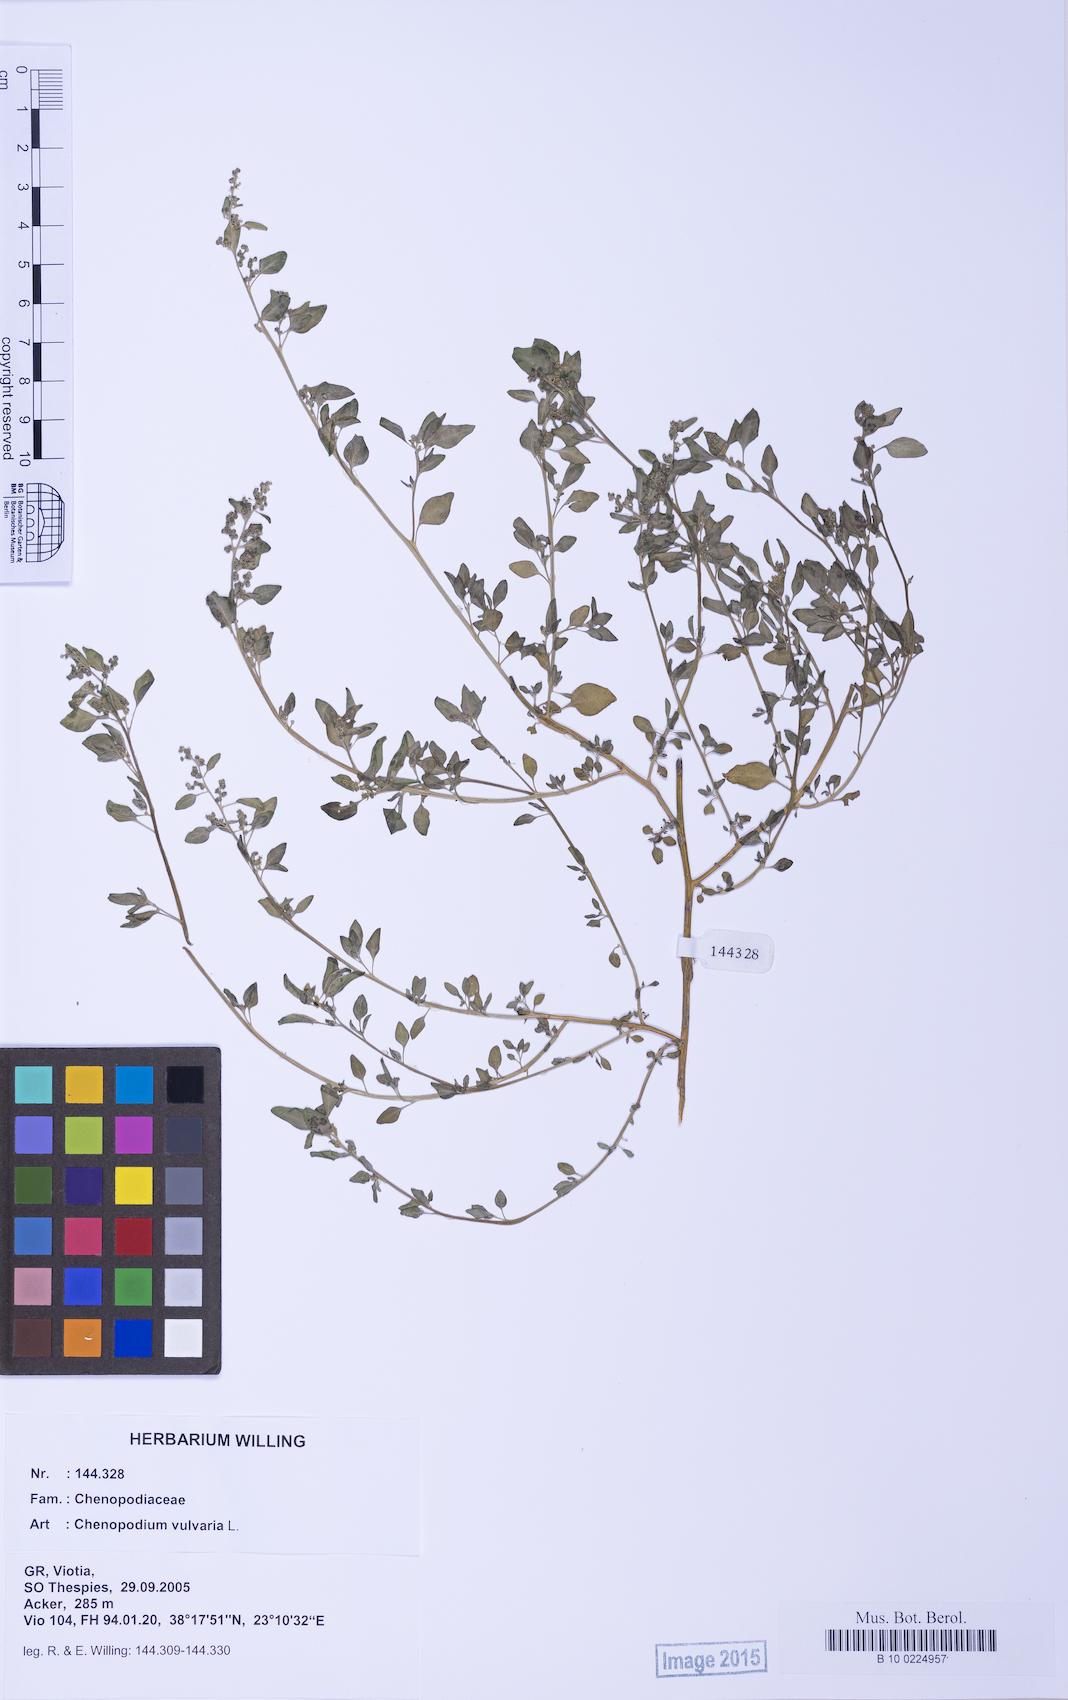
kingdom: Plantae
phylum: Tracheophyta
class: Magnoliopsida
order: Caryophyllales
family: Amaranthaceae
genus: Chenopodium
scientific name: Chenopodium vulvaria
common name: Stinking goosefoot
